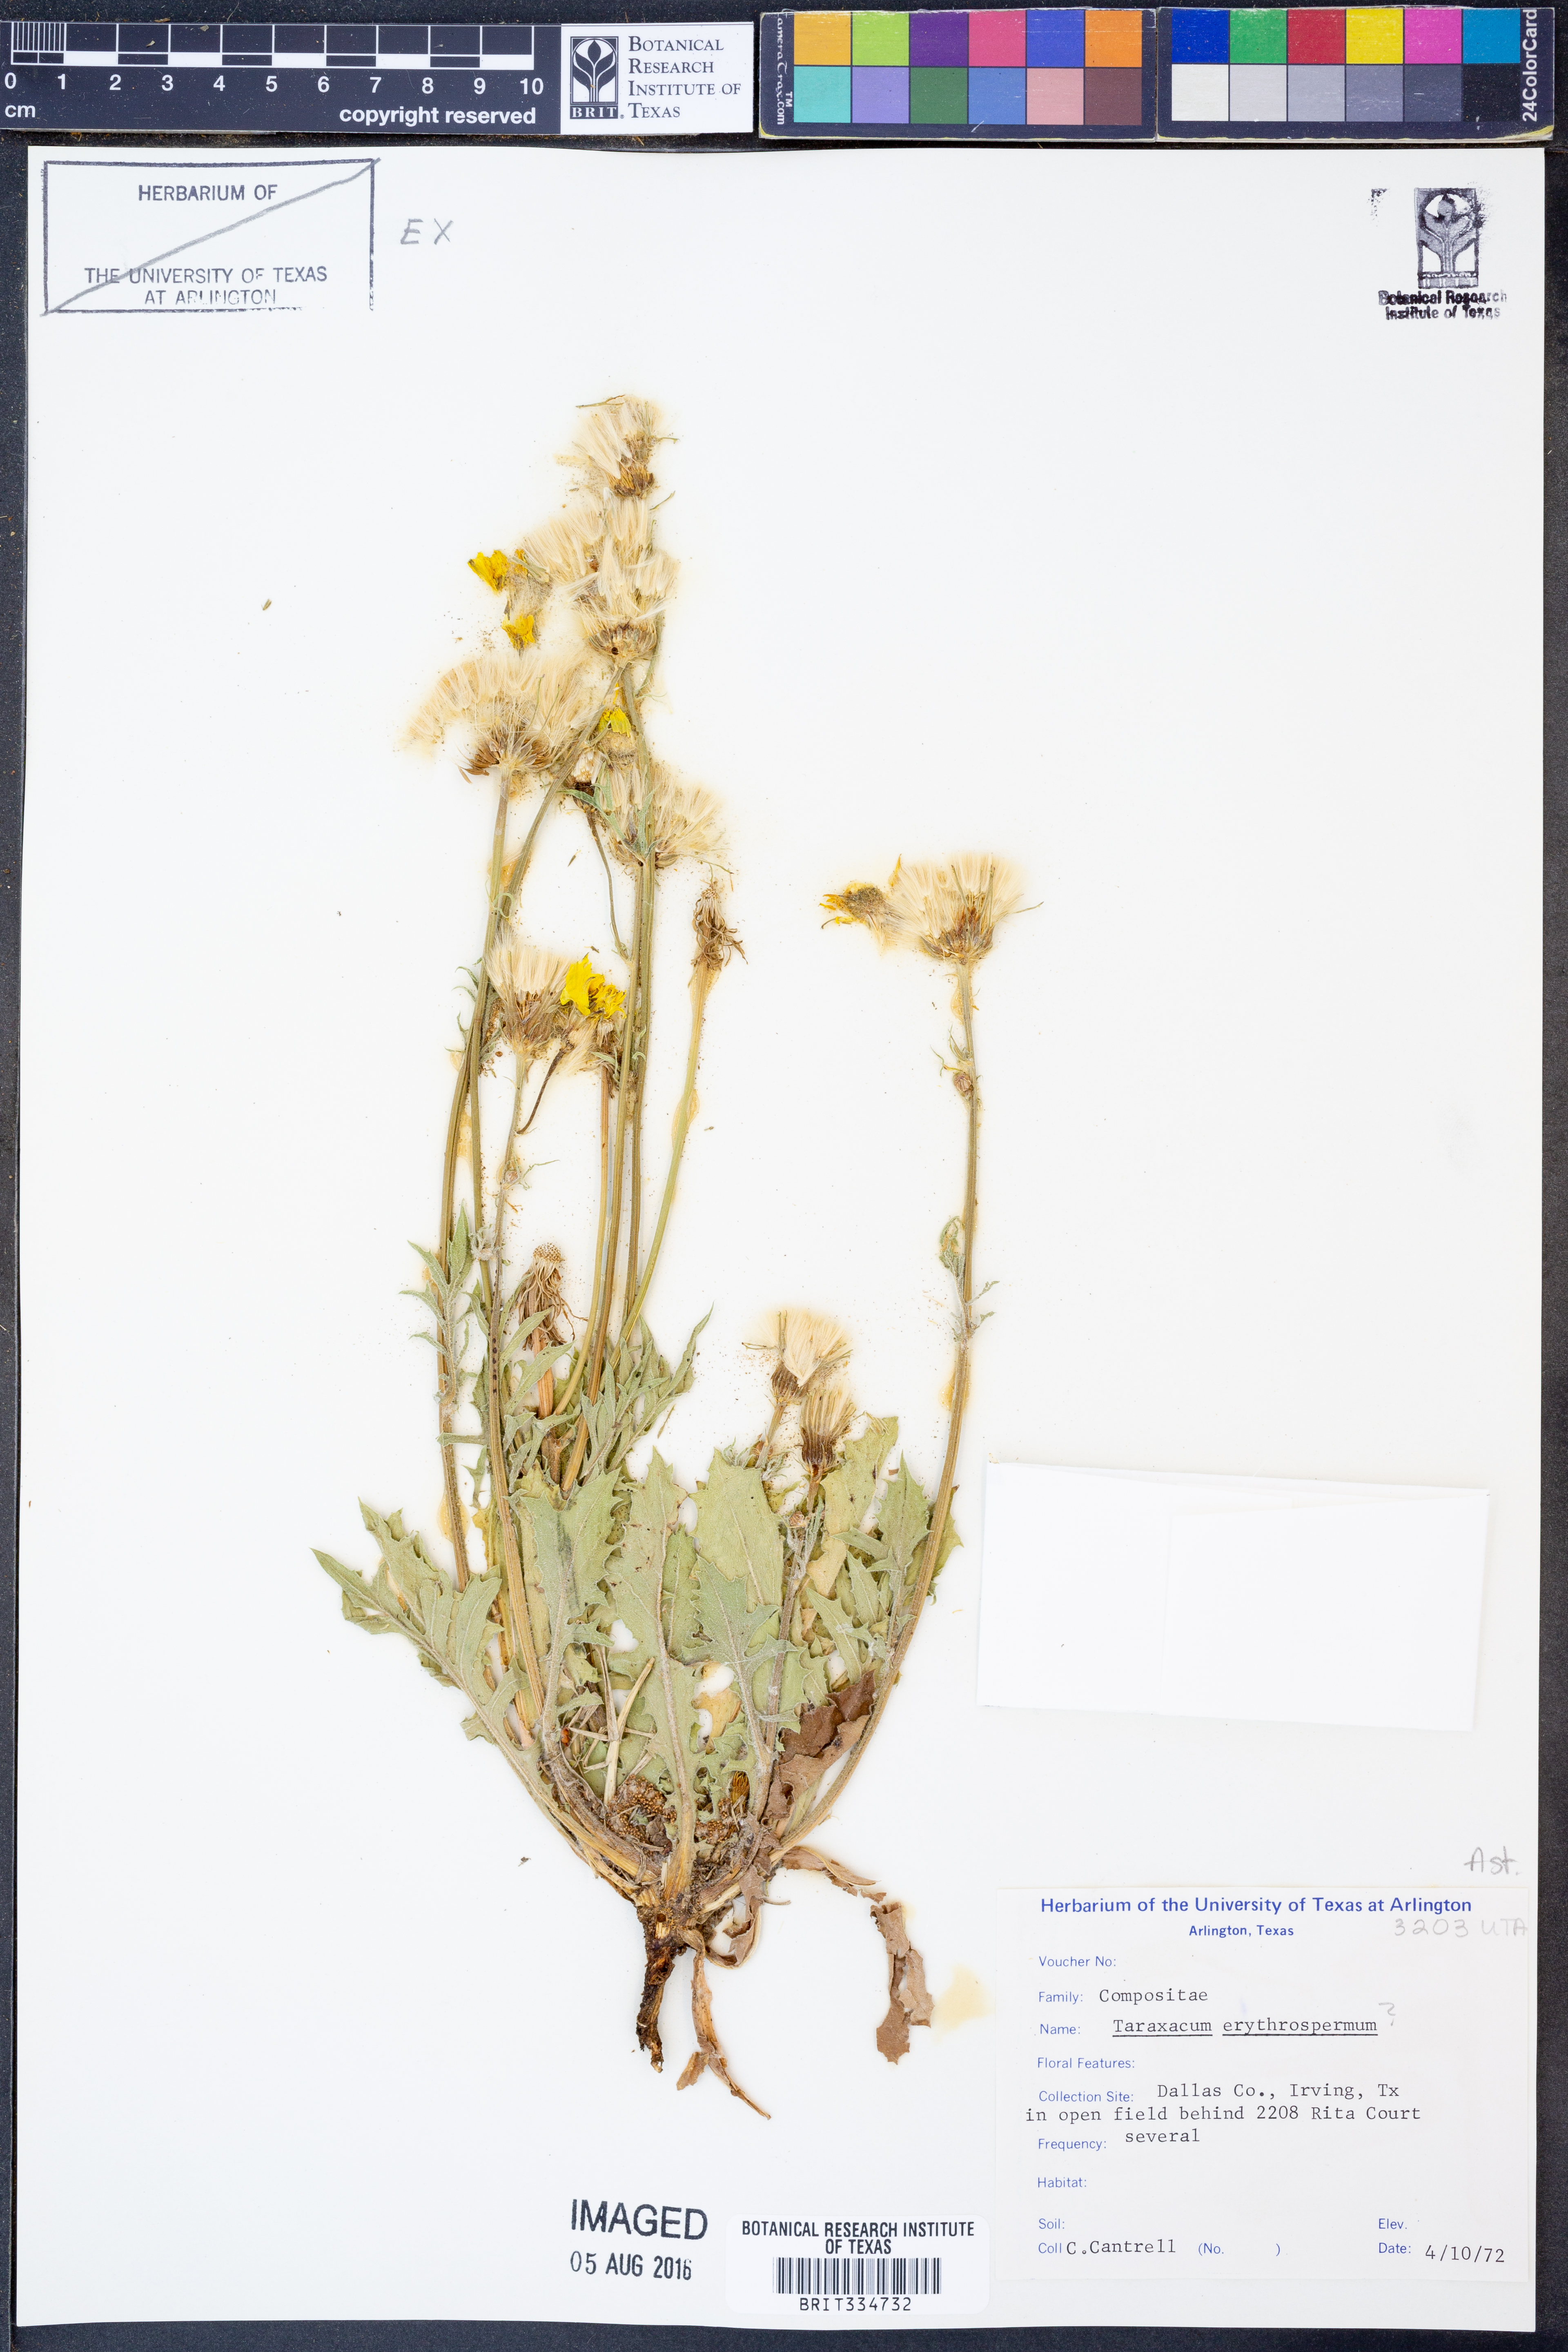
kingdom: Plantae
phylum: Tracheophyta
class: Magnoliopsida
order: Asterales
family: Asteraceae
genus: Taraxacum
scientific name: Taraxacum erythrospermum
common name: Rock dandelion
